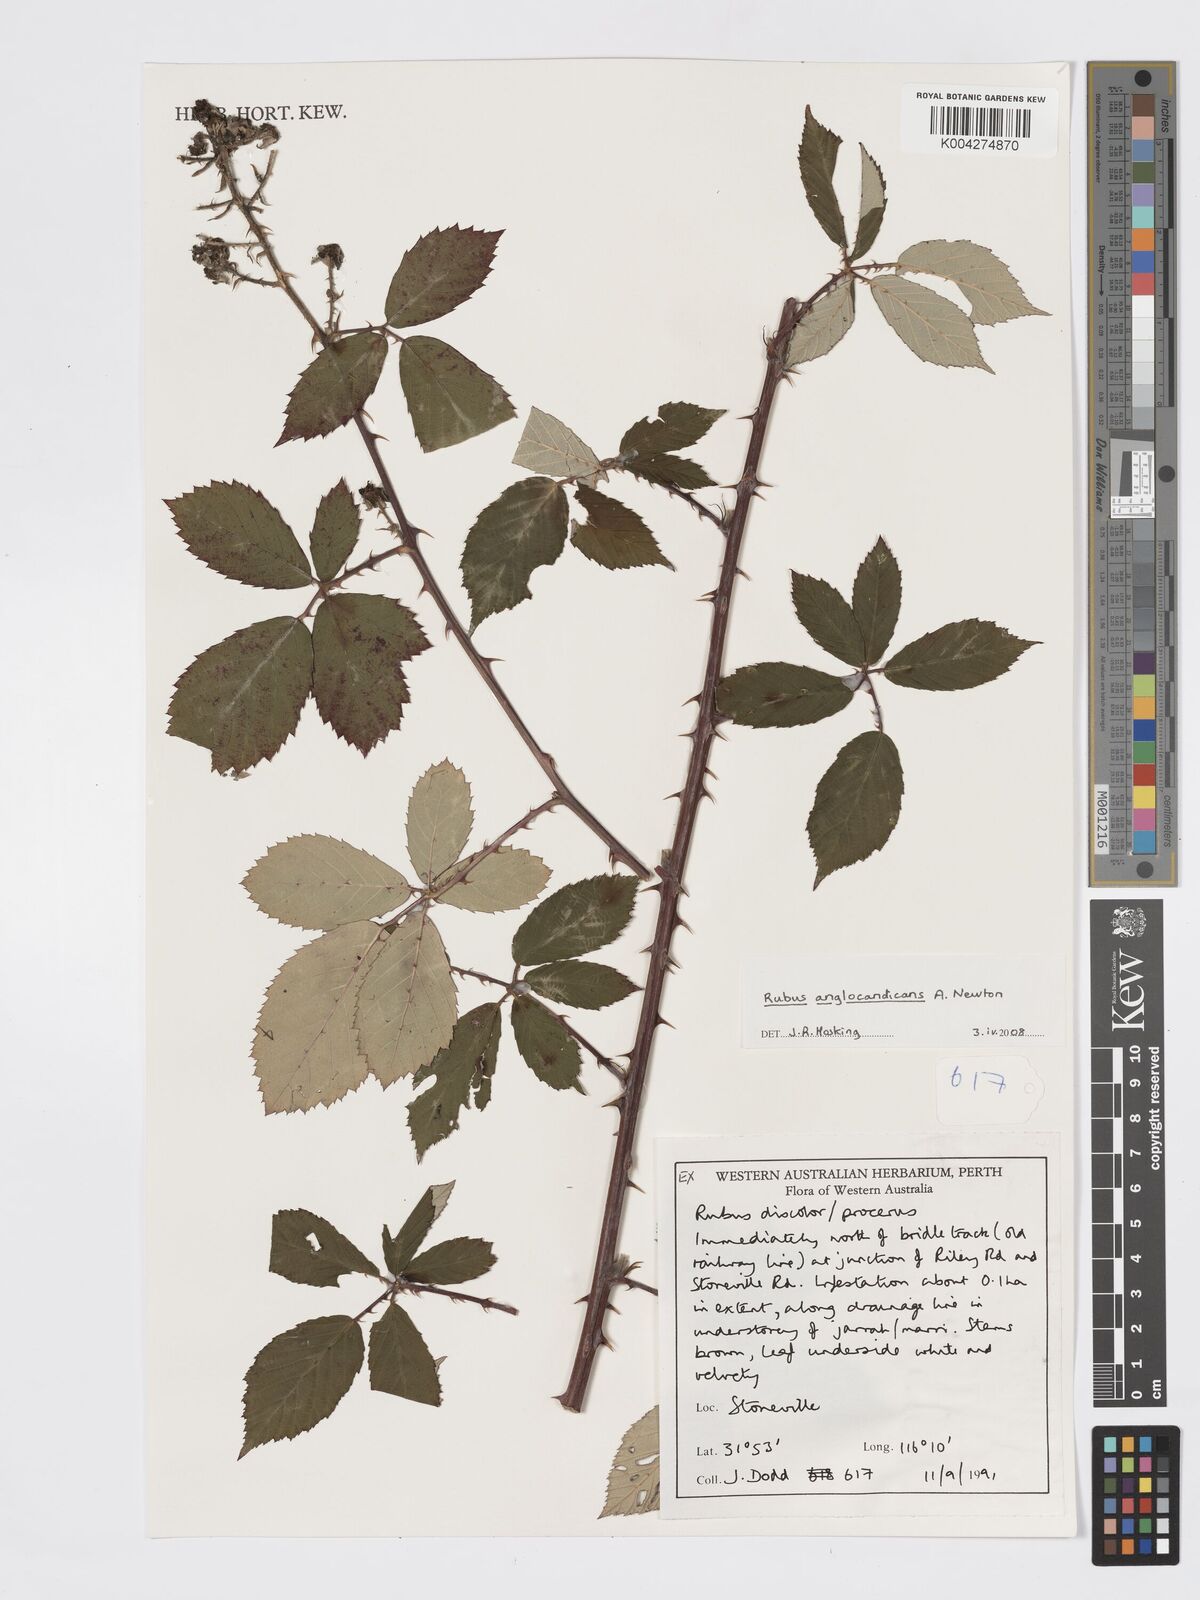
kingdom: Plantae
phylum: Tracheophyta
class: Magnoliopsida
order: Rosales
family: Rosaceae
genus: Rubus
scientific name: Rubus anglocandicans
